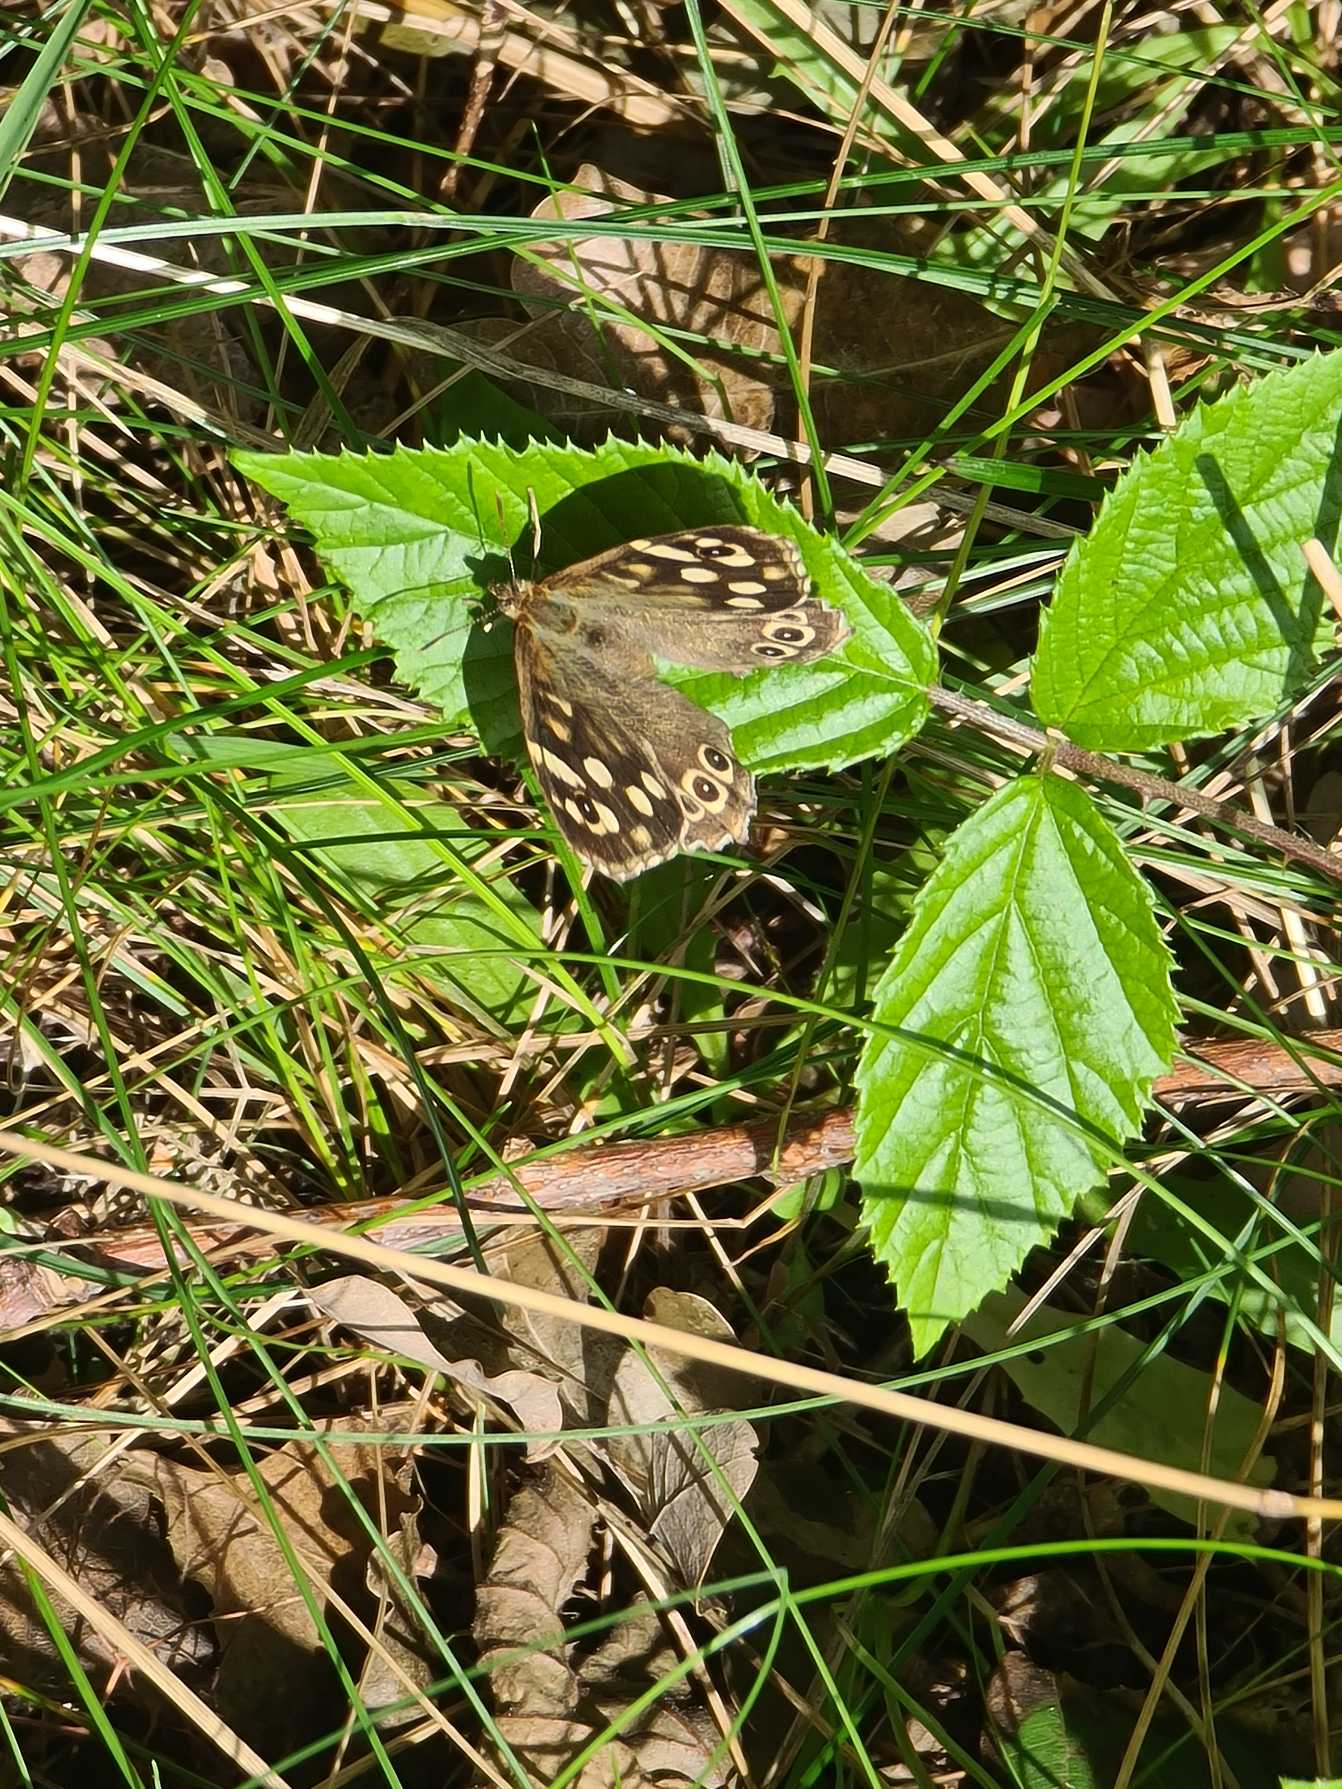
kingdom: Animalia
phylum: Arthropoda
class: Insecta
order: Lepidoptera
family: Nymphalidae
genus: Pararge
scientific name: Pararge aegeria
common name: Skovrandøje
